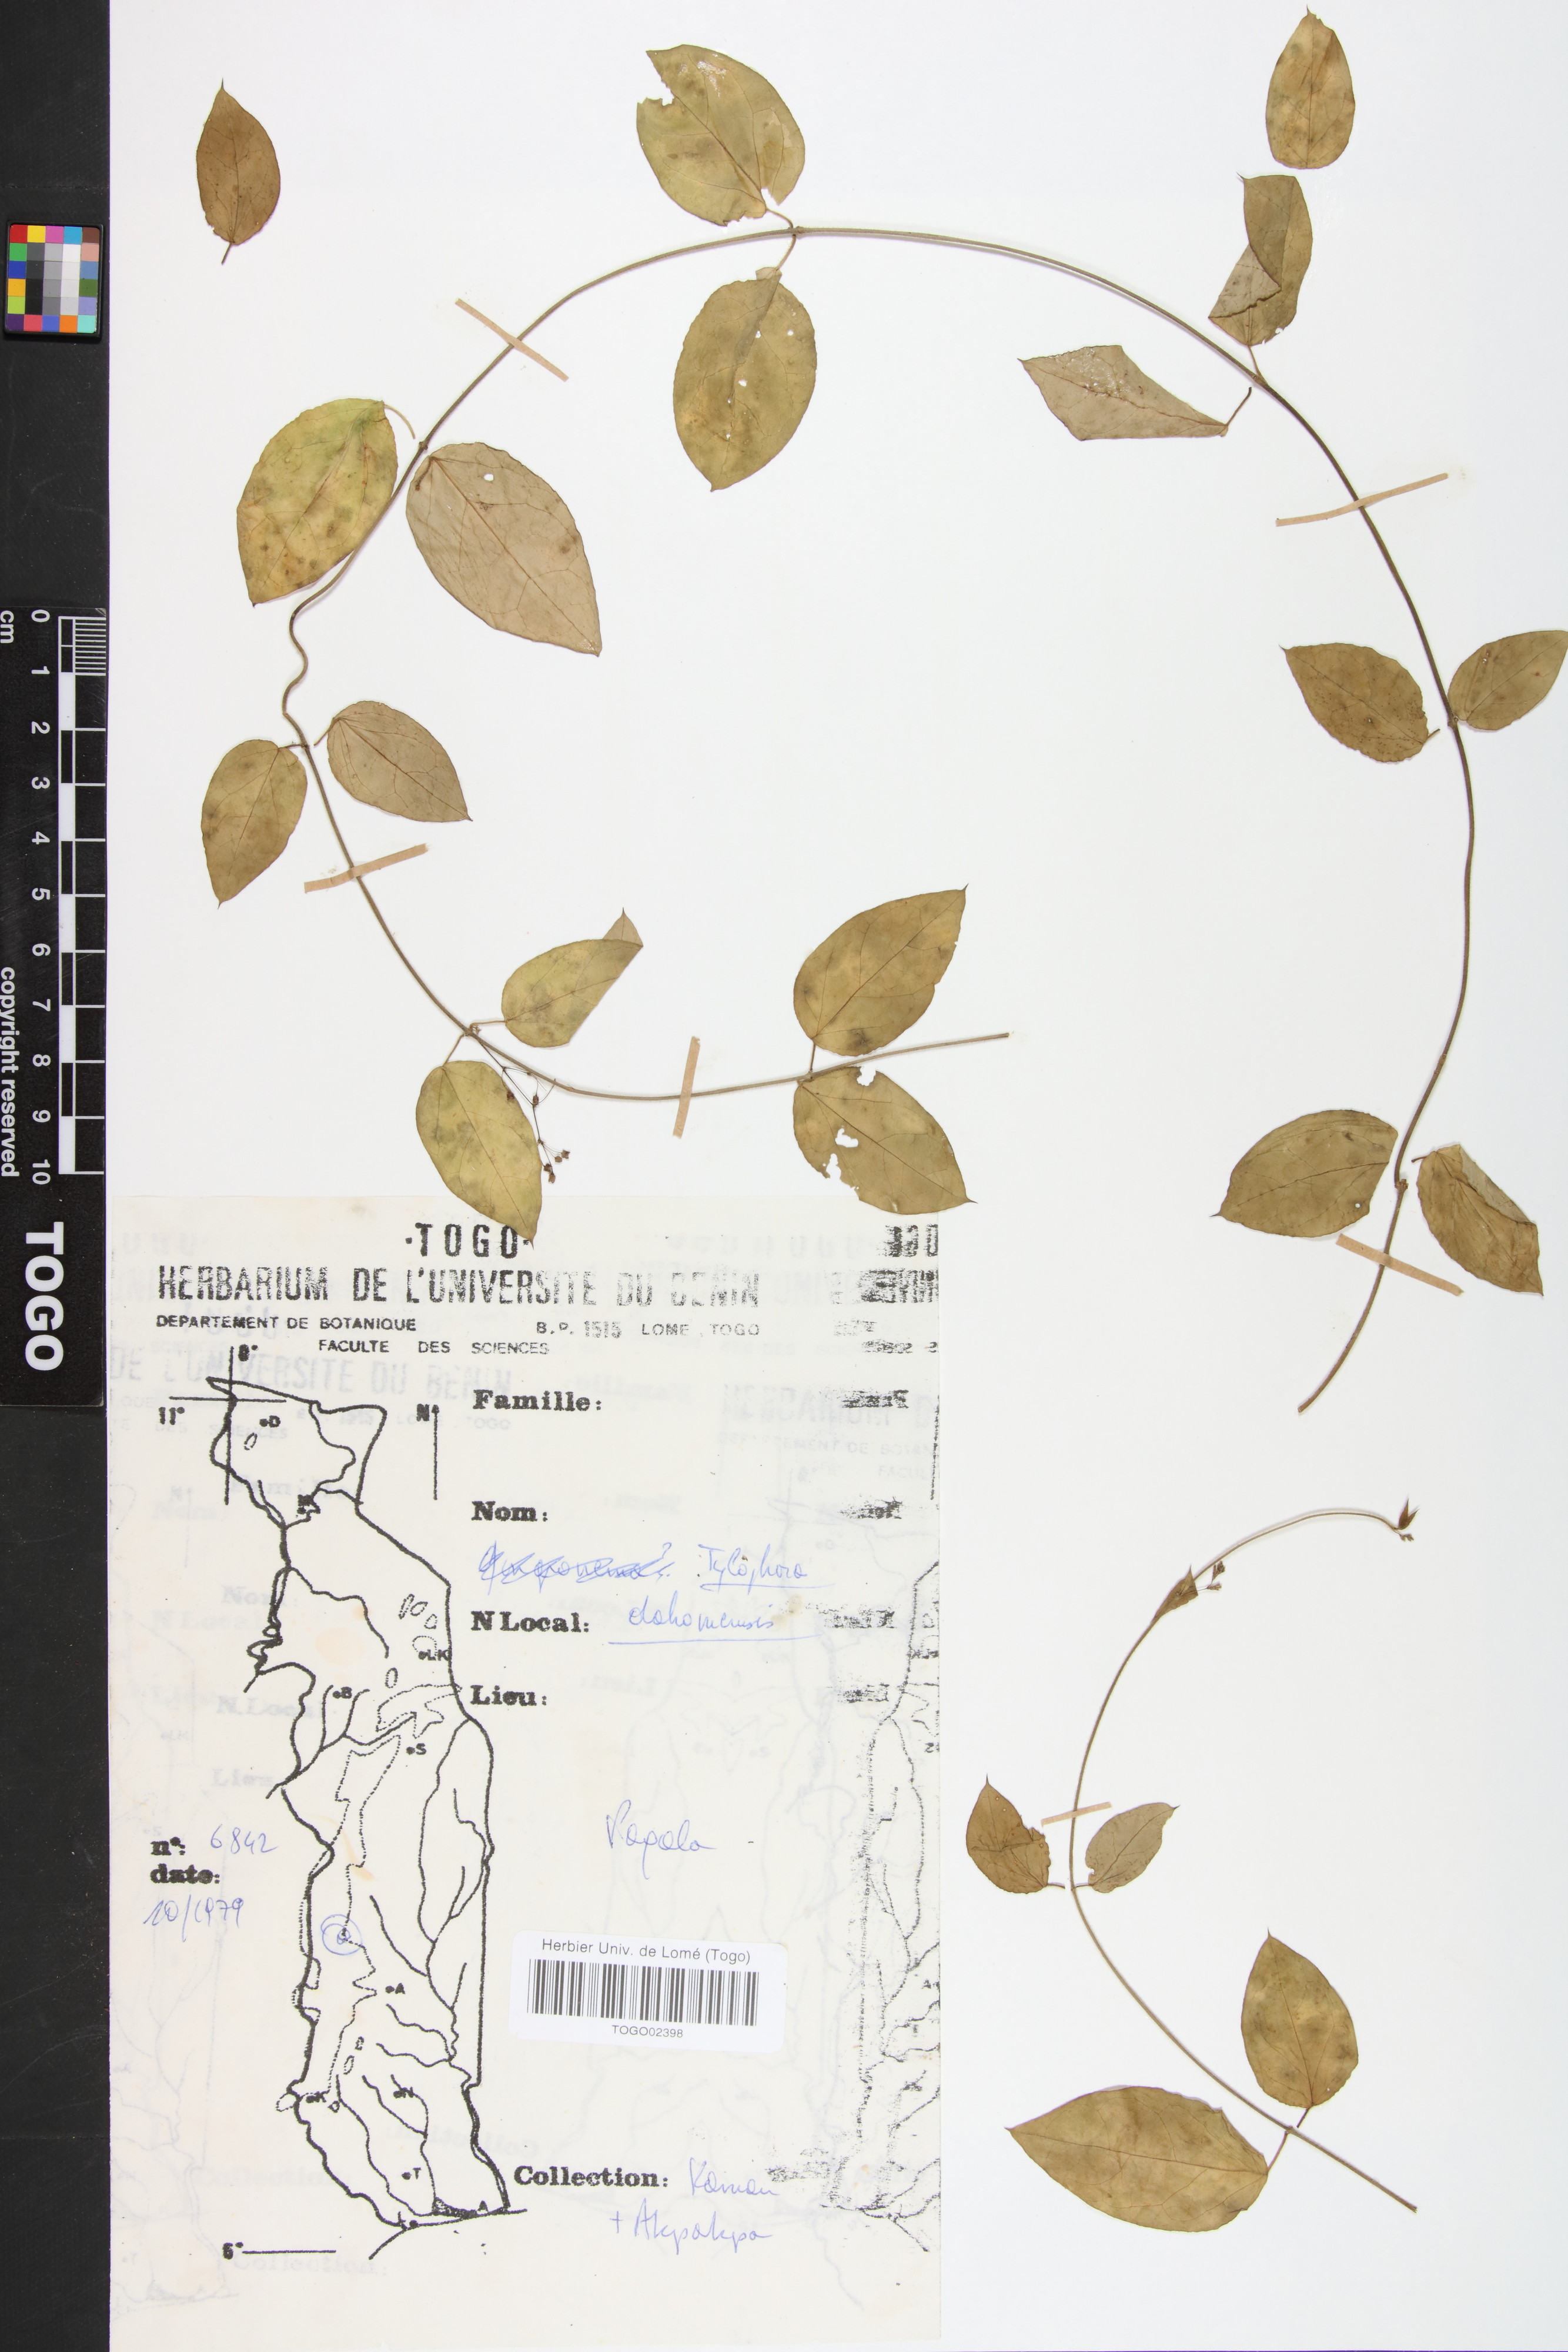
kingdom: Plantae
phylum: Tracheophyta
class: Magnoliopsida
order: Gentianales
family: Apocynaceae
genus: Vincetoxicum
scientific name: Vincetoxicum dahomense
